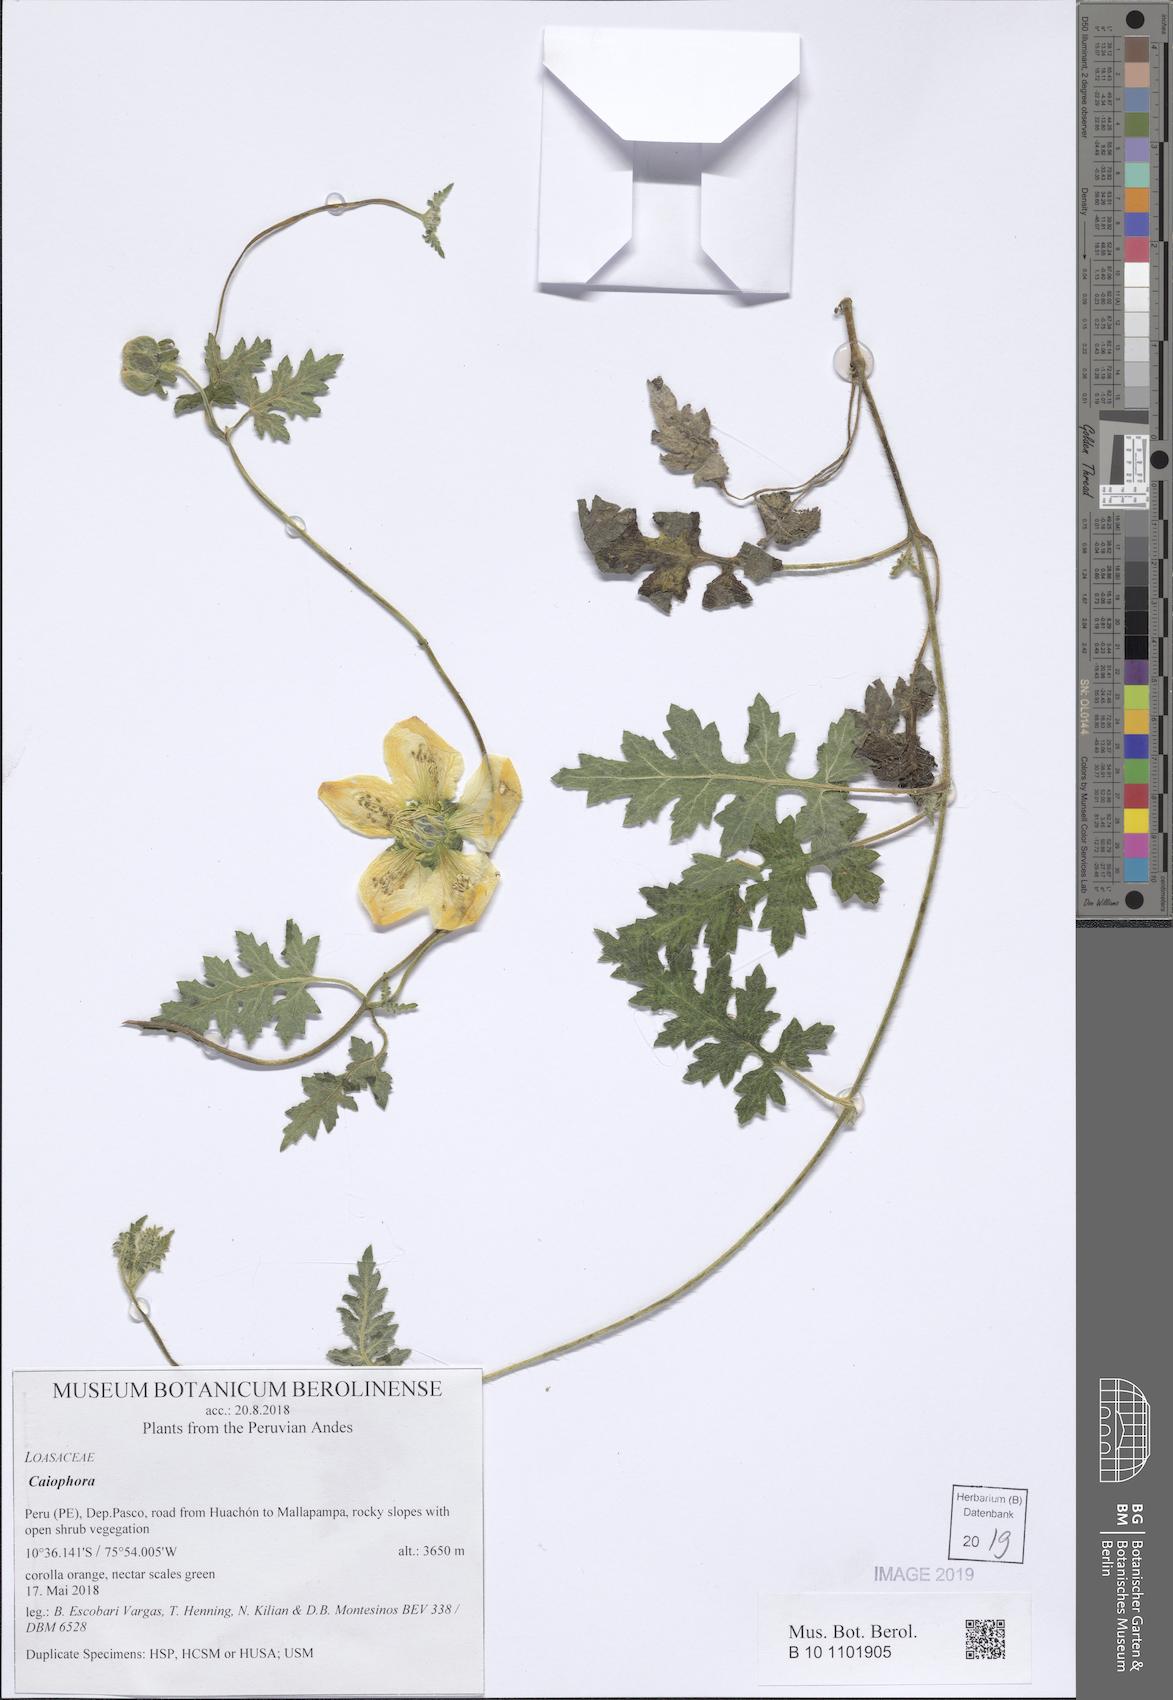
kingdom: Plantae
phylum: Tracheophyta
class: Magnoliopsida
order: Cornales
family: Loasaceae
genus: Caiophora
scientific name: Caiophora
